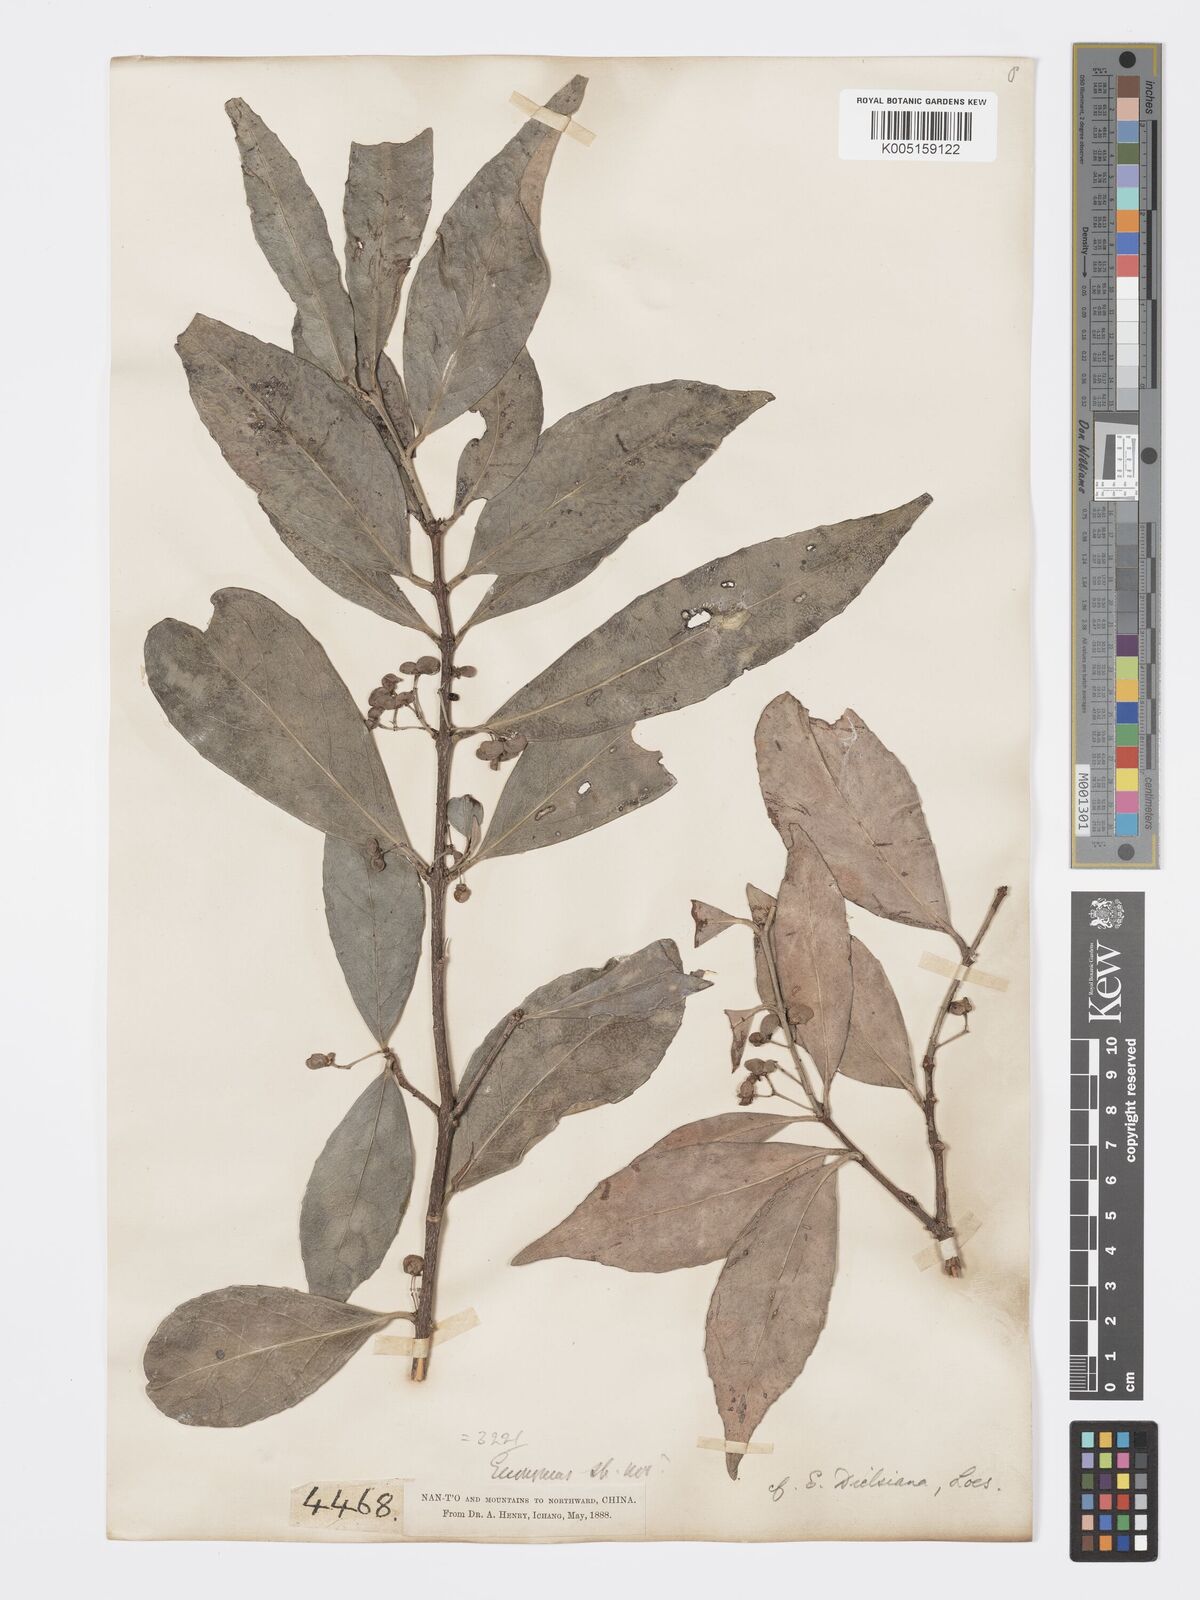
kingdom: Plantae
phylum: Tracheophyta
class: Magnoliopsida
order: Celastrales
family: Celastraceae
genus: Euonymus
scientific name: Euonymus dielsianus
